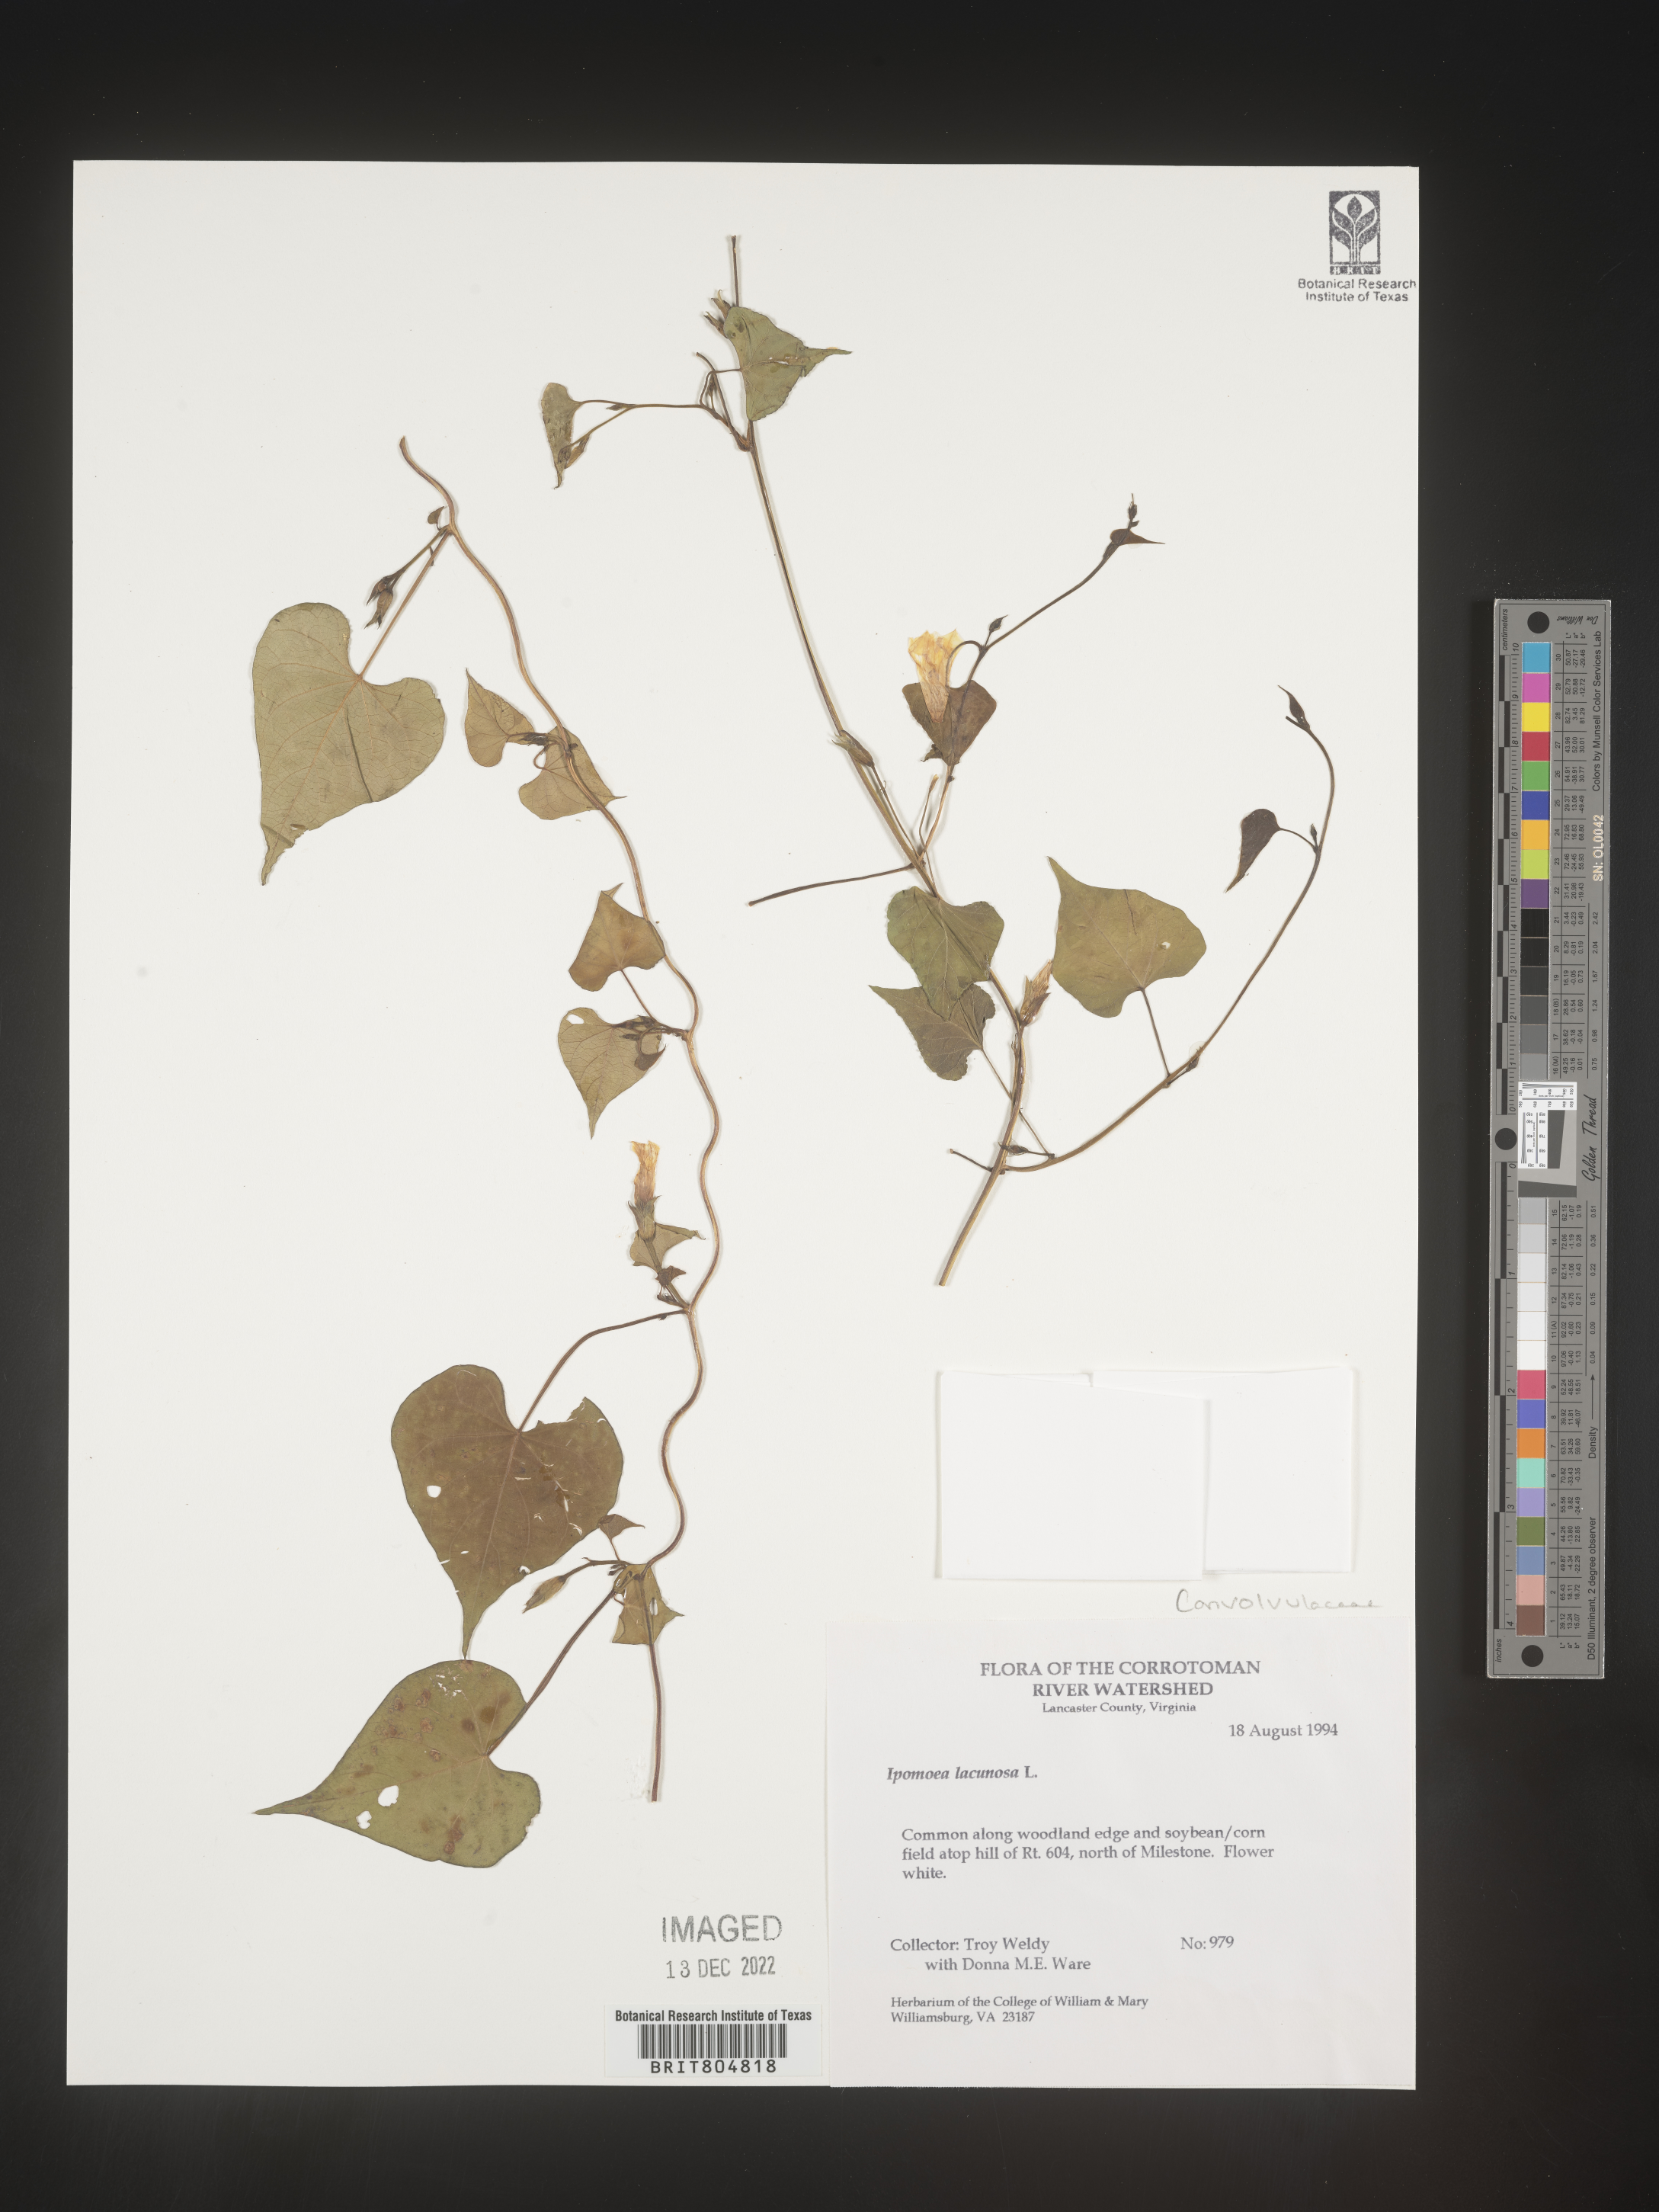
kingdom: Plantae
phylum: Tracheophyta
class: Magnoliopsida
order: Solanales
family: Convolvulaceae
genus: Ipomoea
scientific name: Ipomoea lacunosa
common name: White morning-glory
